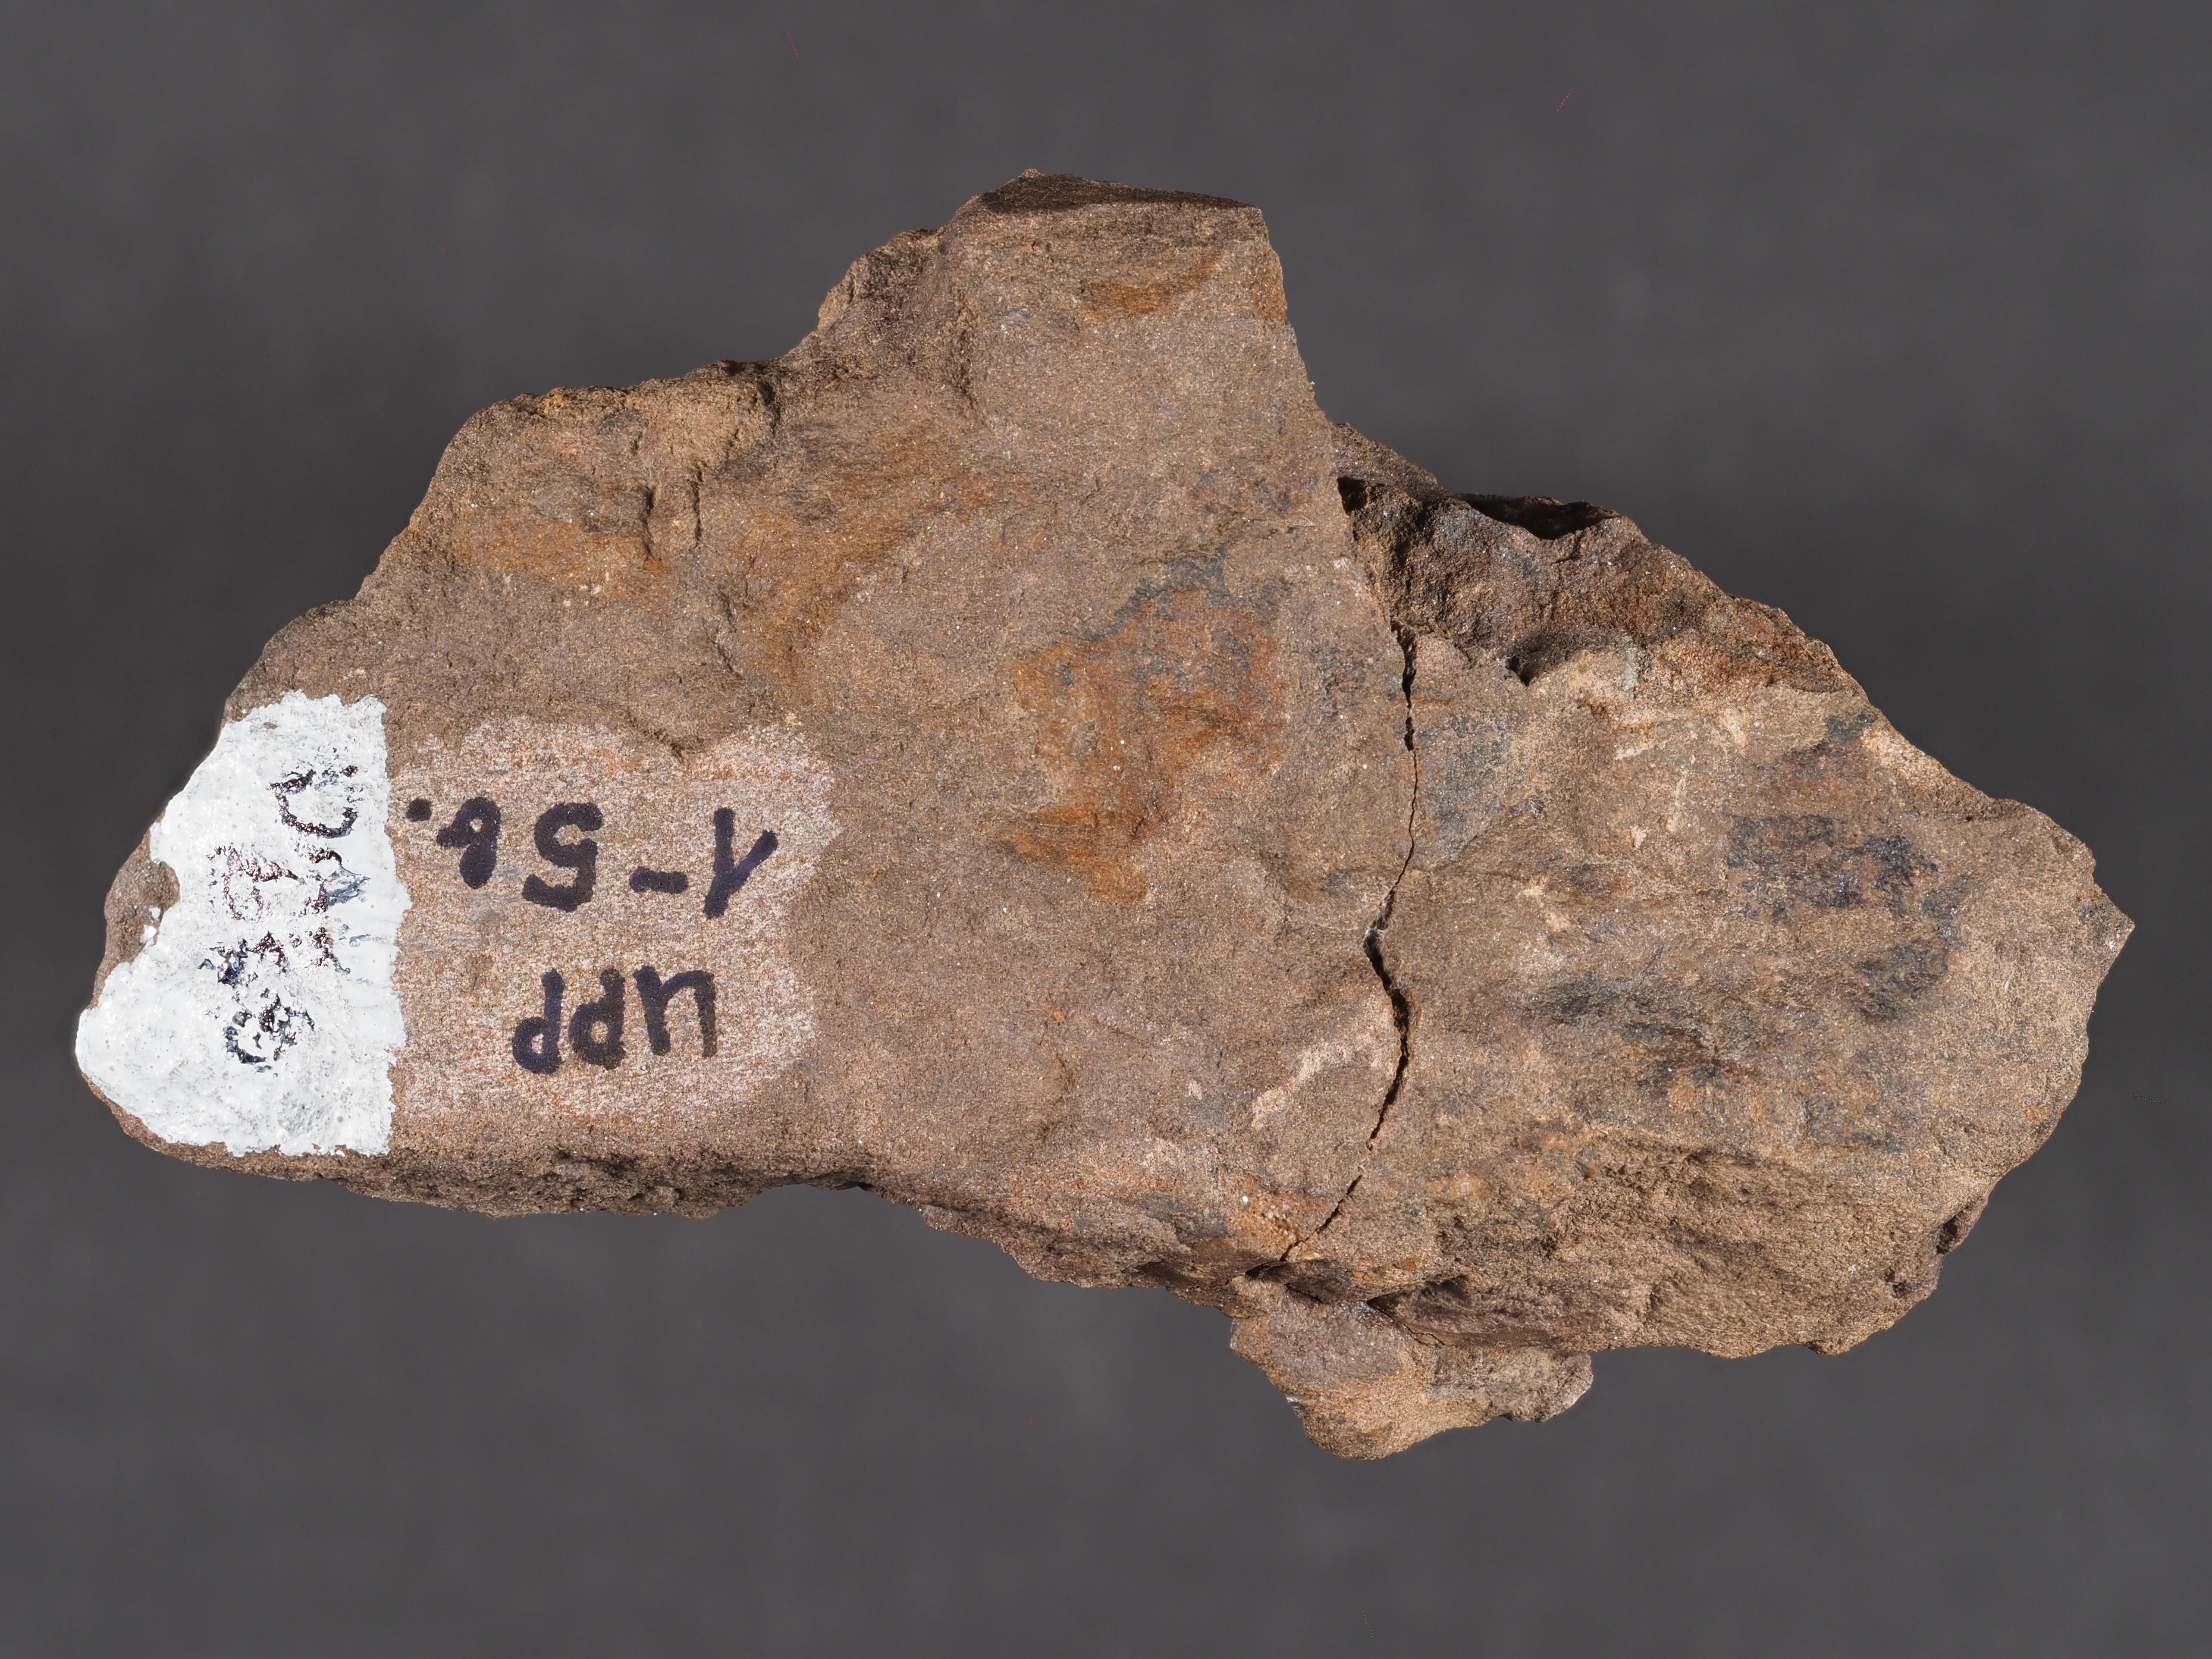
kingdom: Animalia
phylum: Mollusca
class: Gastropoda
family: Platyceratidae
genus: Platyceras
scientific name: Platyceras
